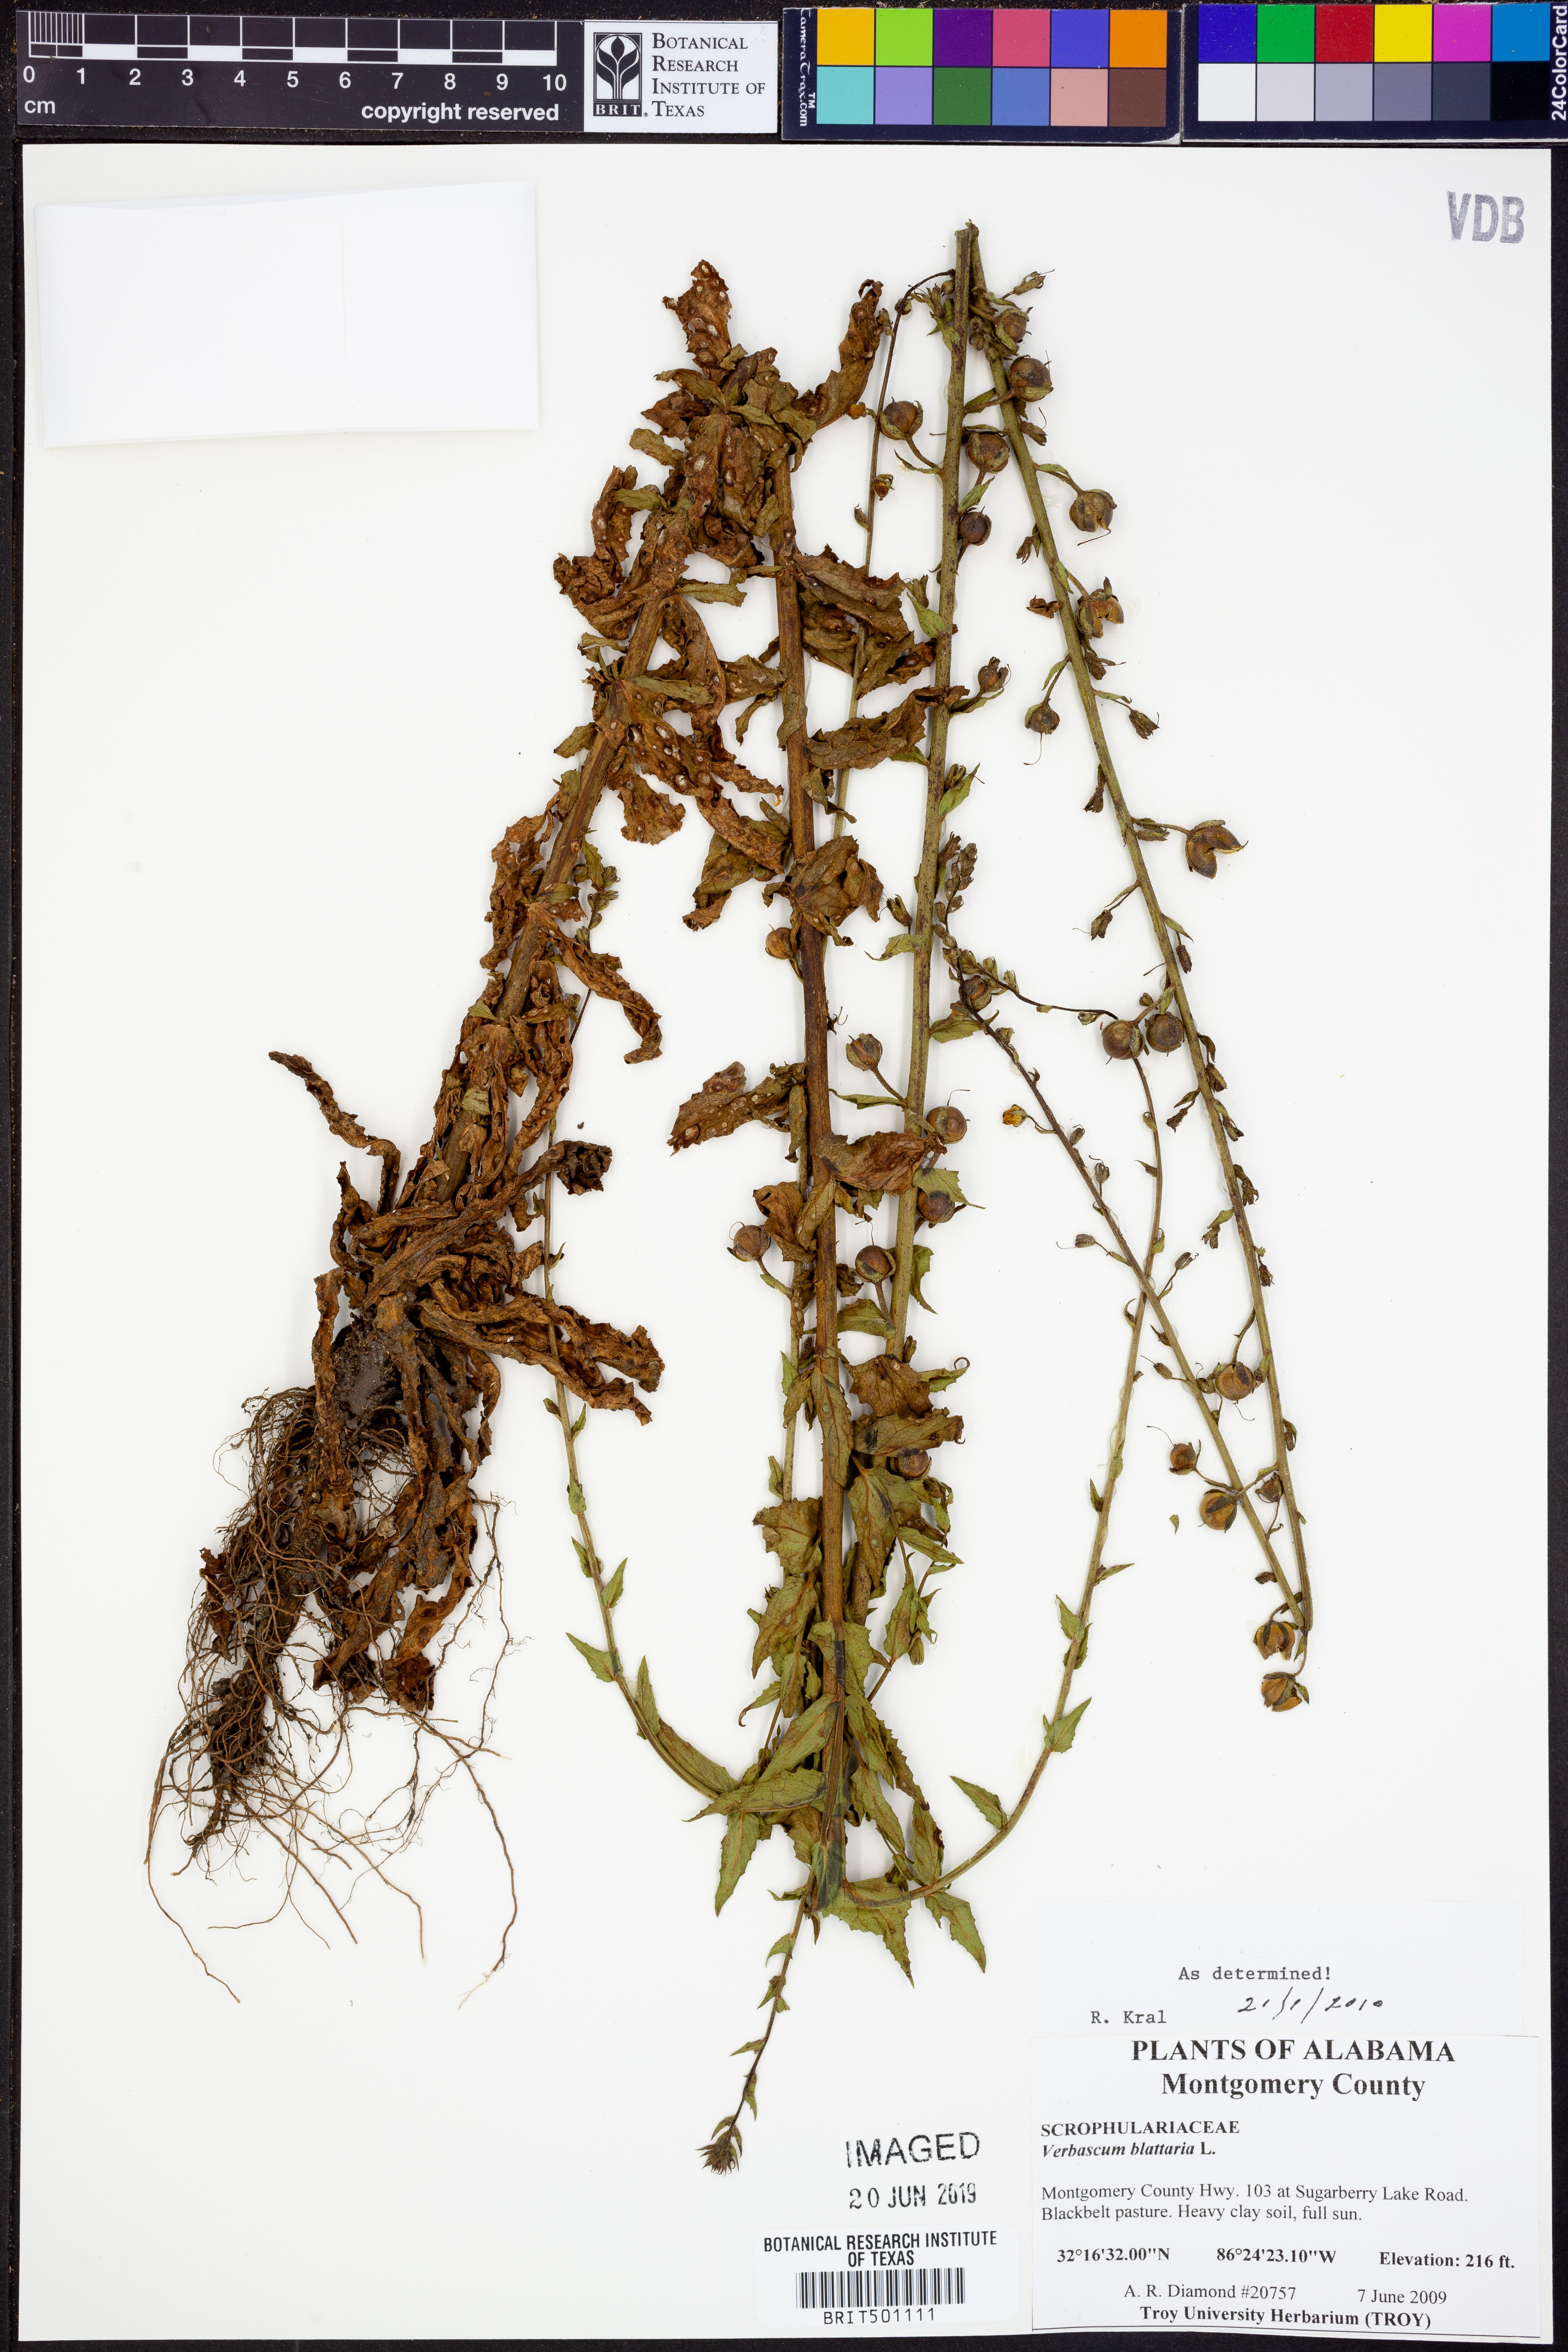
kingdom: Plantae
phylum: Tracheophyta
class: Magnoliopsida
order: Lamiales
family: Scrophulariaceae
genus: Verbascum
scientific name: Verbascum blattaria
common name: Moth mullein
